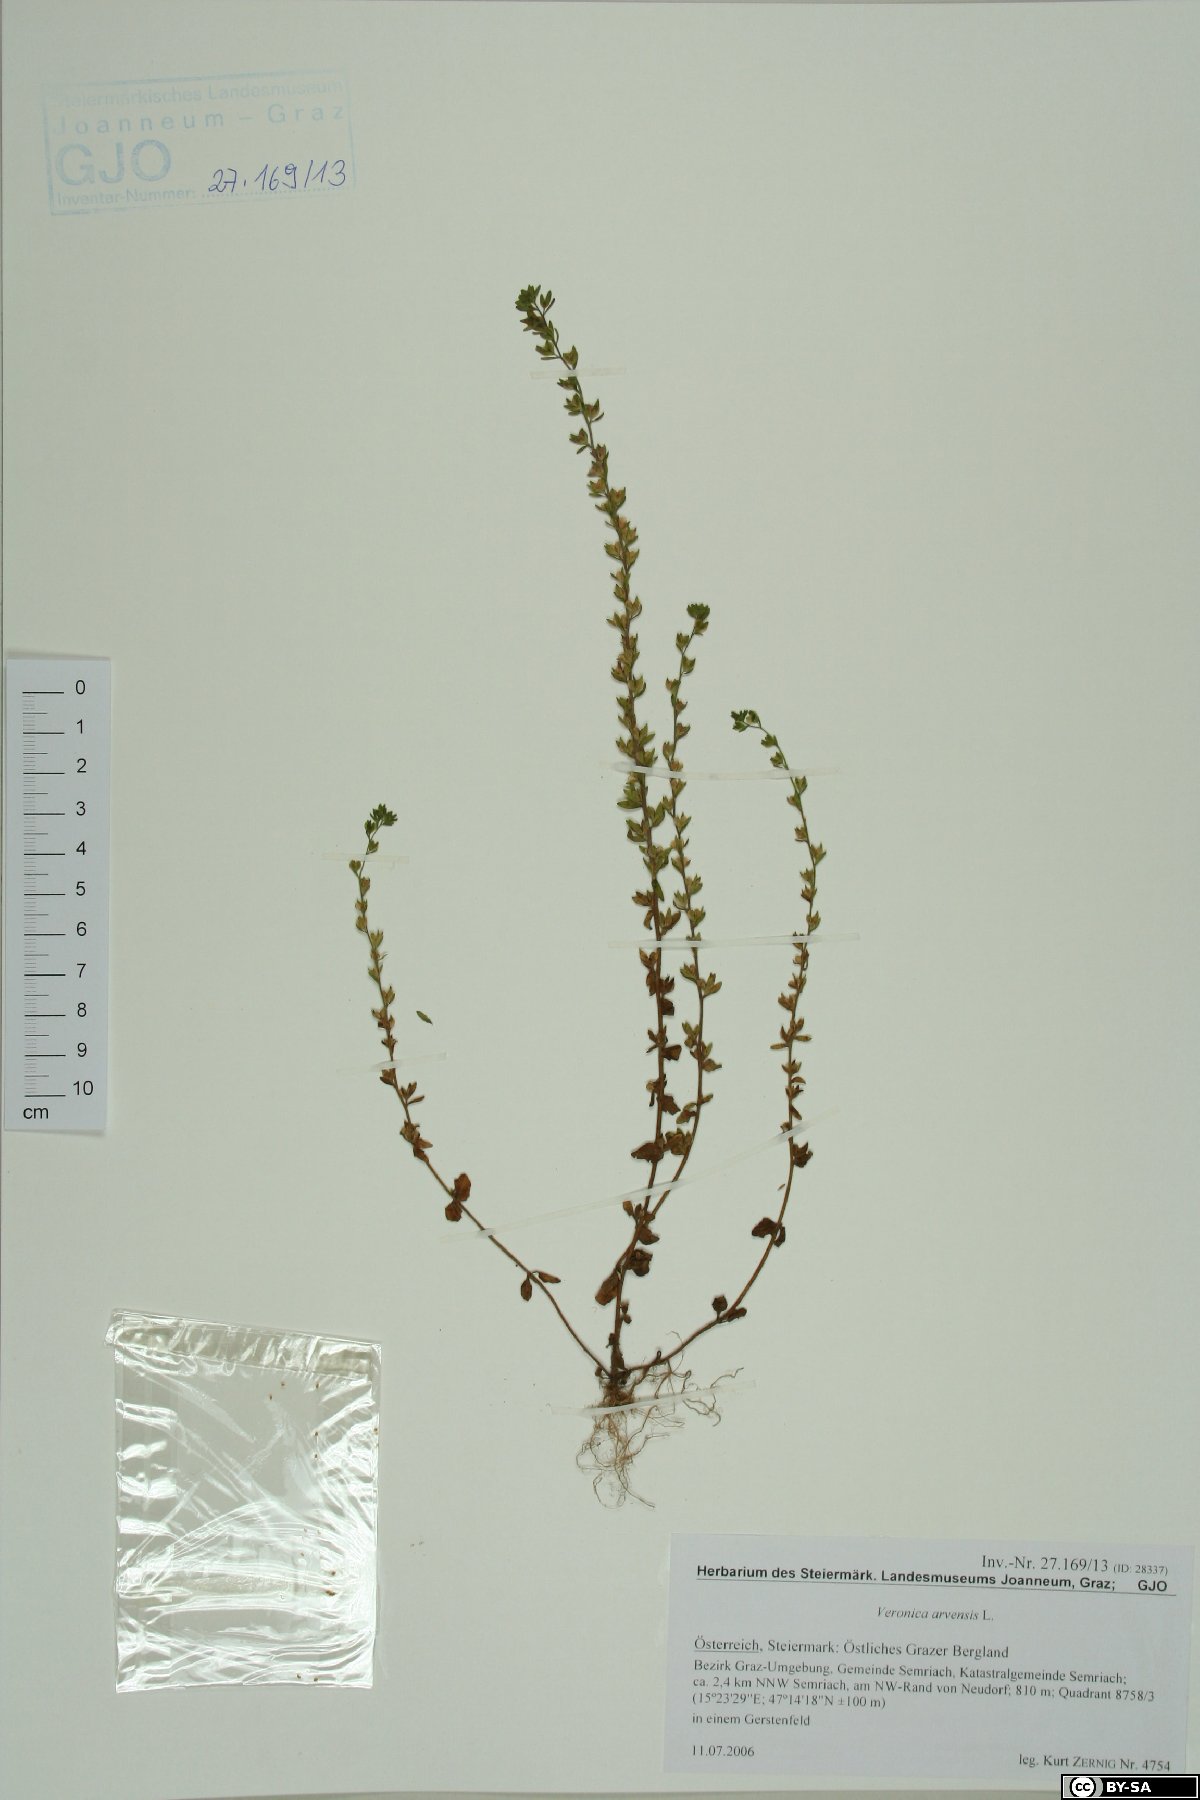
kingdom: Plantae
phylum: Tracheophyta
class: Magnoliopsida
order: Lamiales
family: Plantaginaceae
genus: Veronica
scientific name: Veronica arvensis
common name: Corn speedwell
